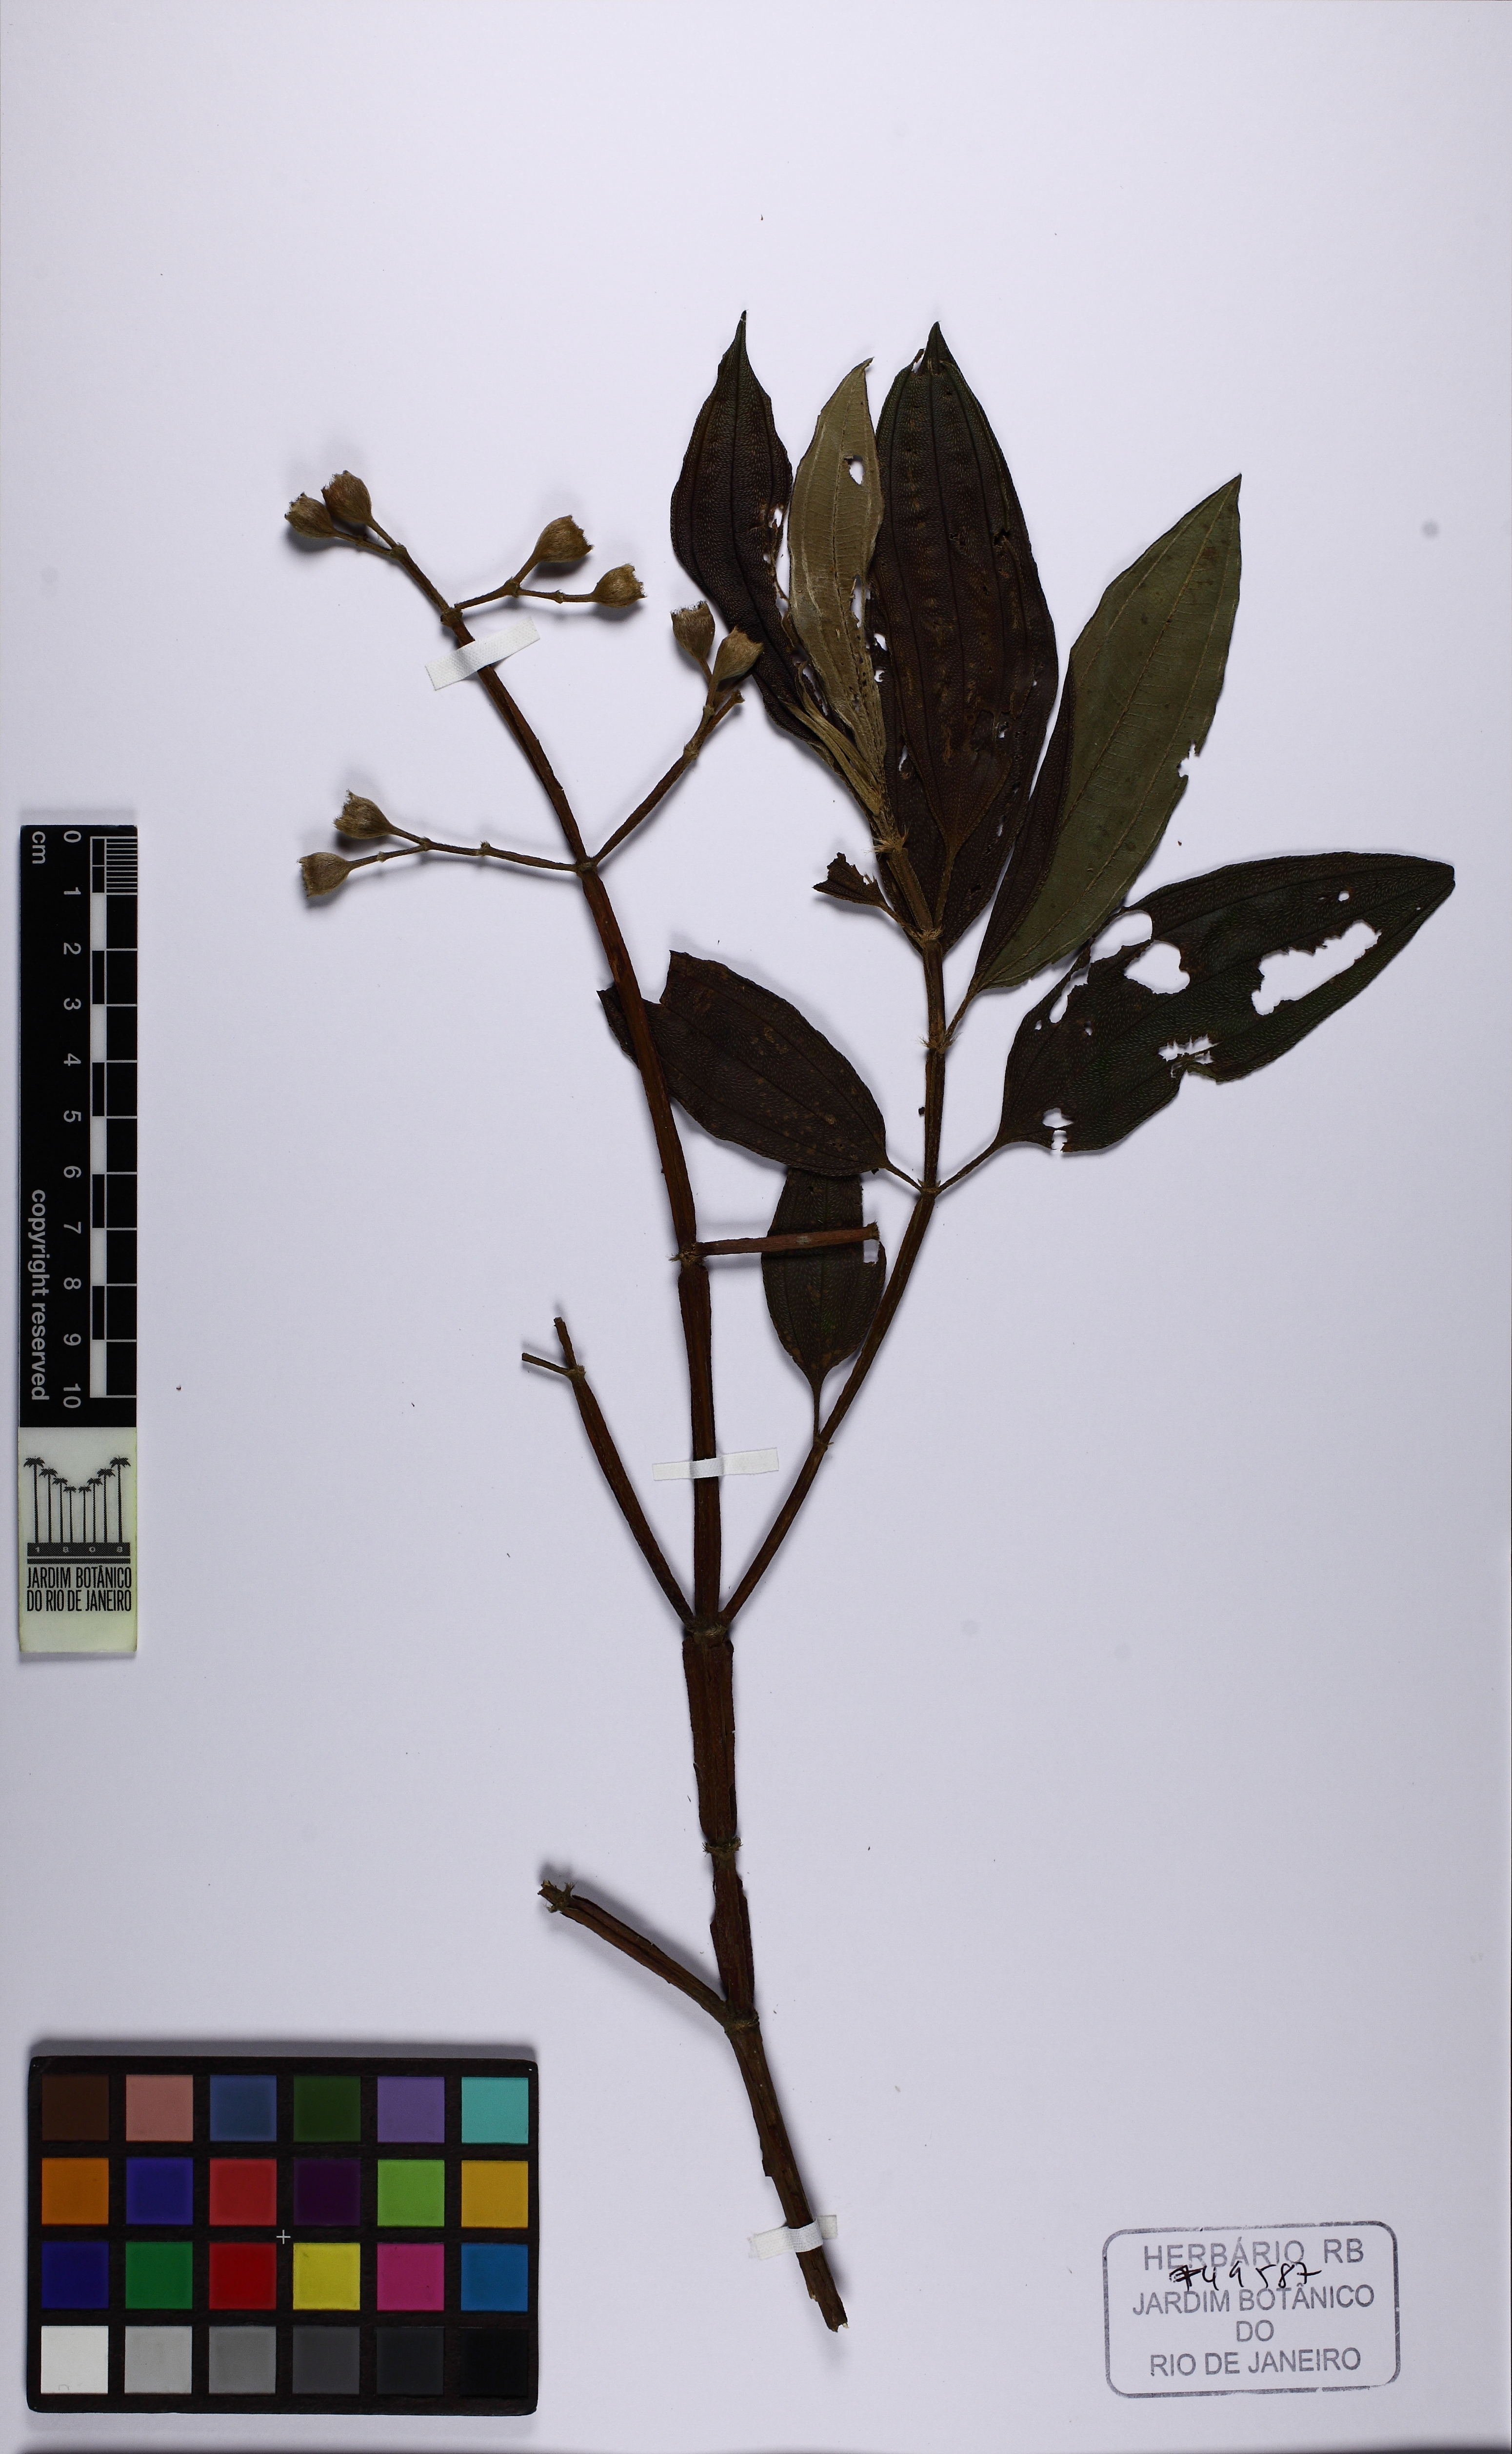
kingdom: Plantae
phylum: Tracheophyta
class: Magnoliopsida
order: Myrtales
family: Melastomataceae
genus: Pleroma
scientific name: Pleroma granulosum
